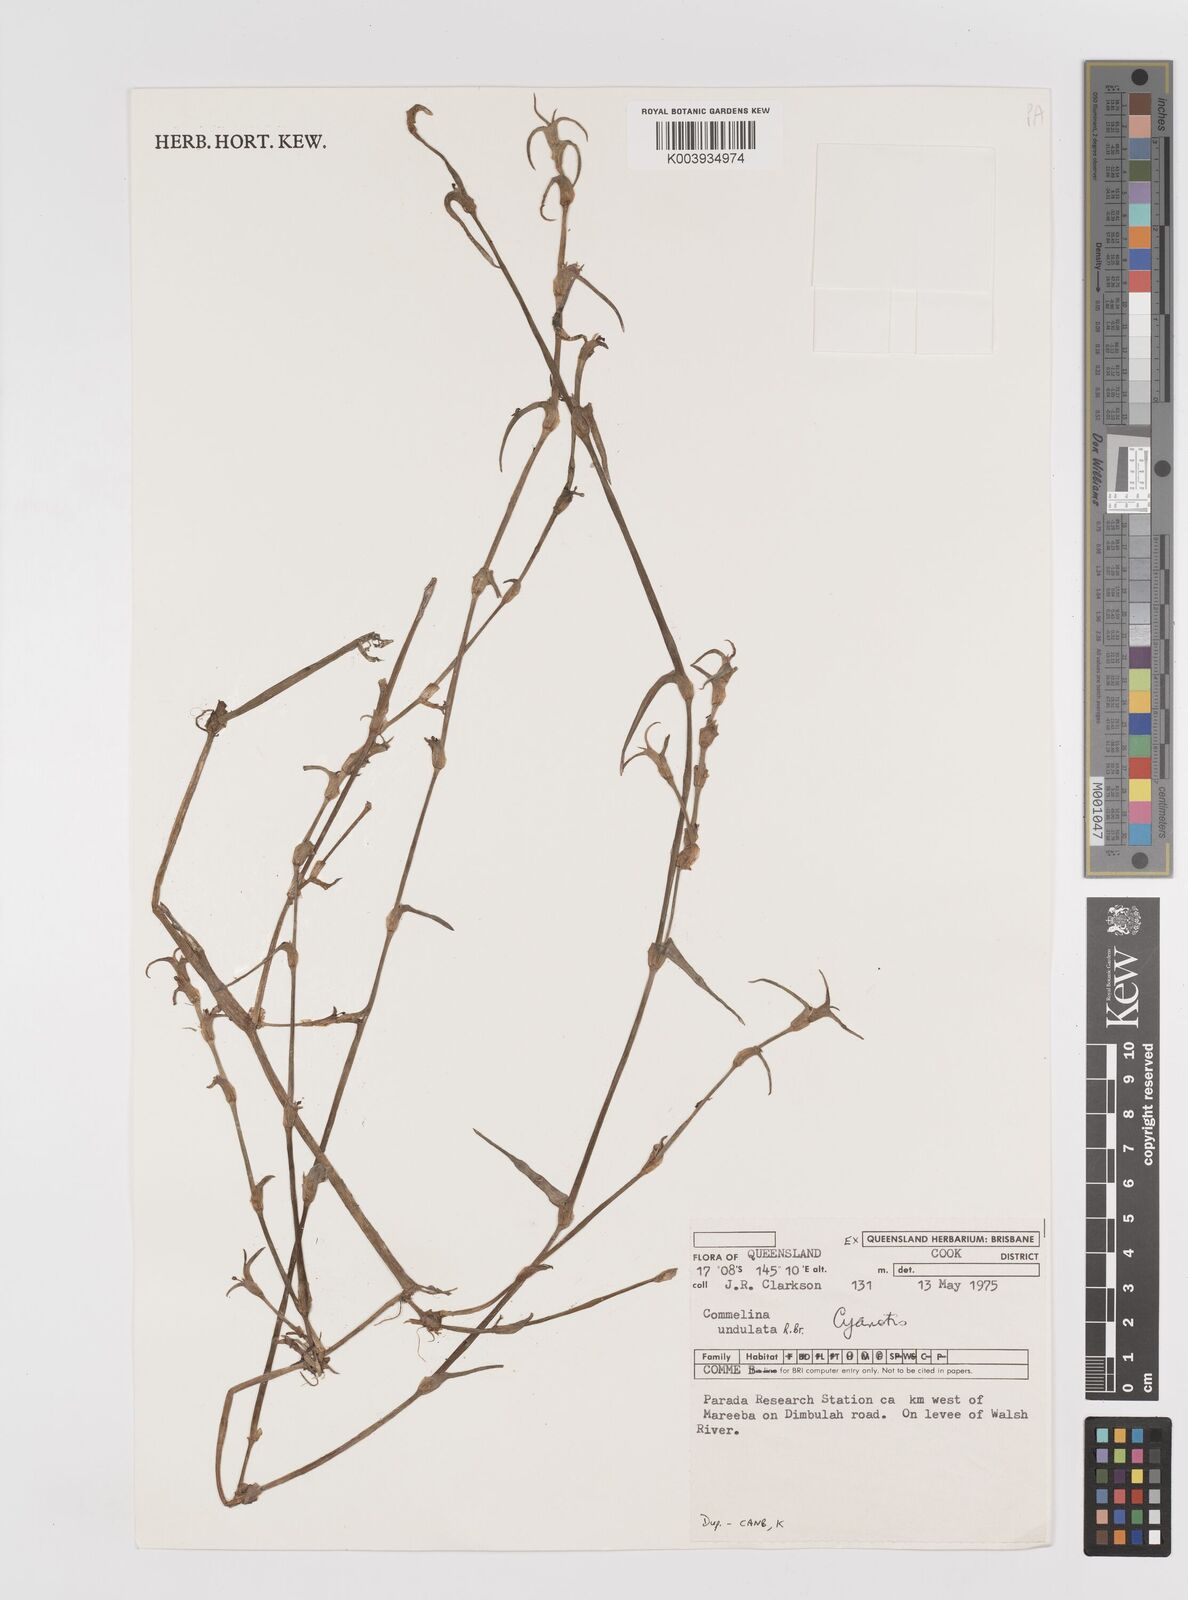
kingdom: Plantae
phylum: Tracheophyta
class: Liliopsida
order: Commelinales
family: Commelinaceae
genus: Cyanotis
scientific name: Cyanotis axillaris
